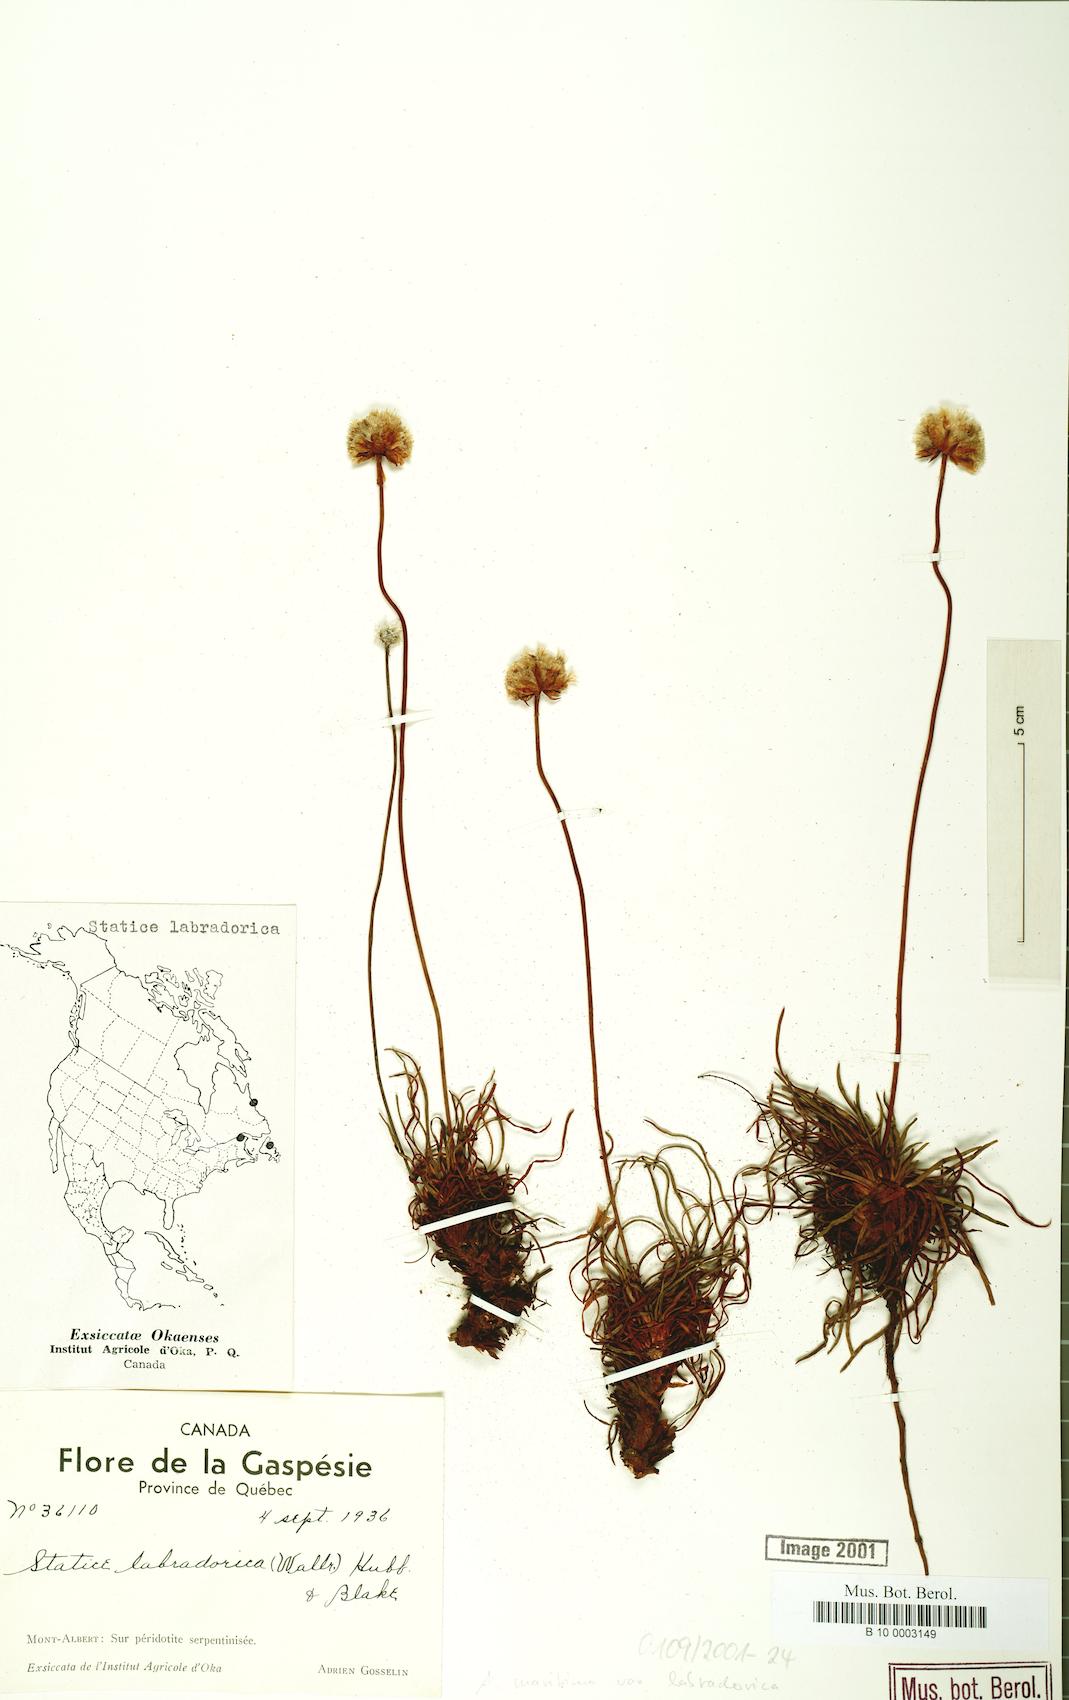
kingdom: Plantae
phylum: Tracheophyta
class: Magnoliopsida
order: Caryophyllales
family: Plumbaginaceae
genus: Armeria
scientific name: Armeria maritima
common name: Thrift
